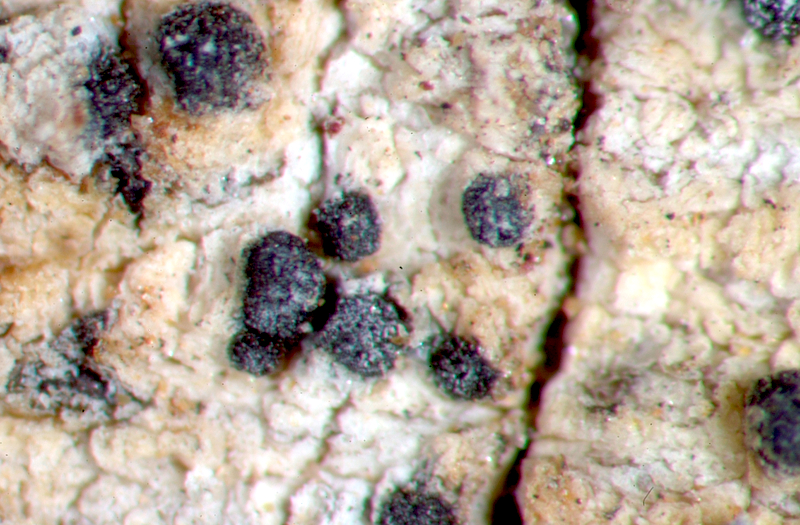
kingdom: Fungi
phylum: Ascomycota
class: Arthoniomycetes
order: Arthoniales
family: Arthoniaceae
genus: Arthonia
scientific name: Arthonia
